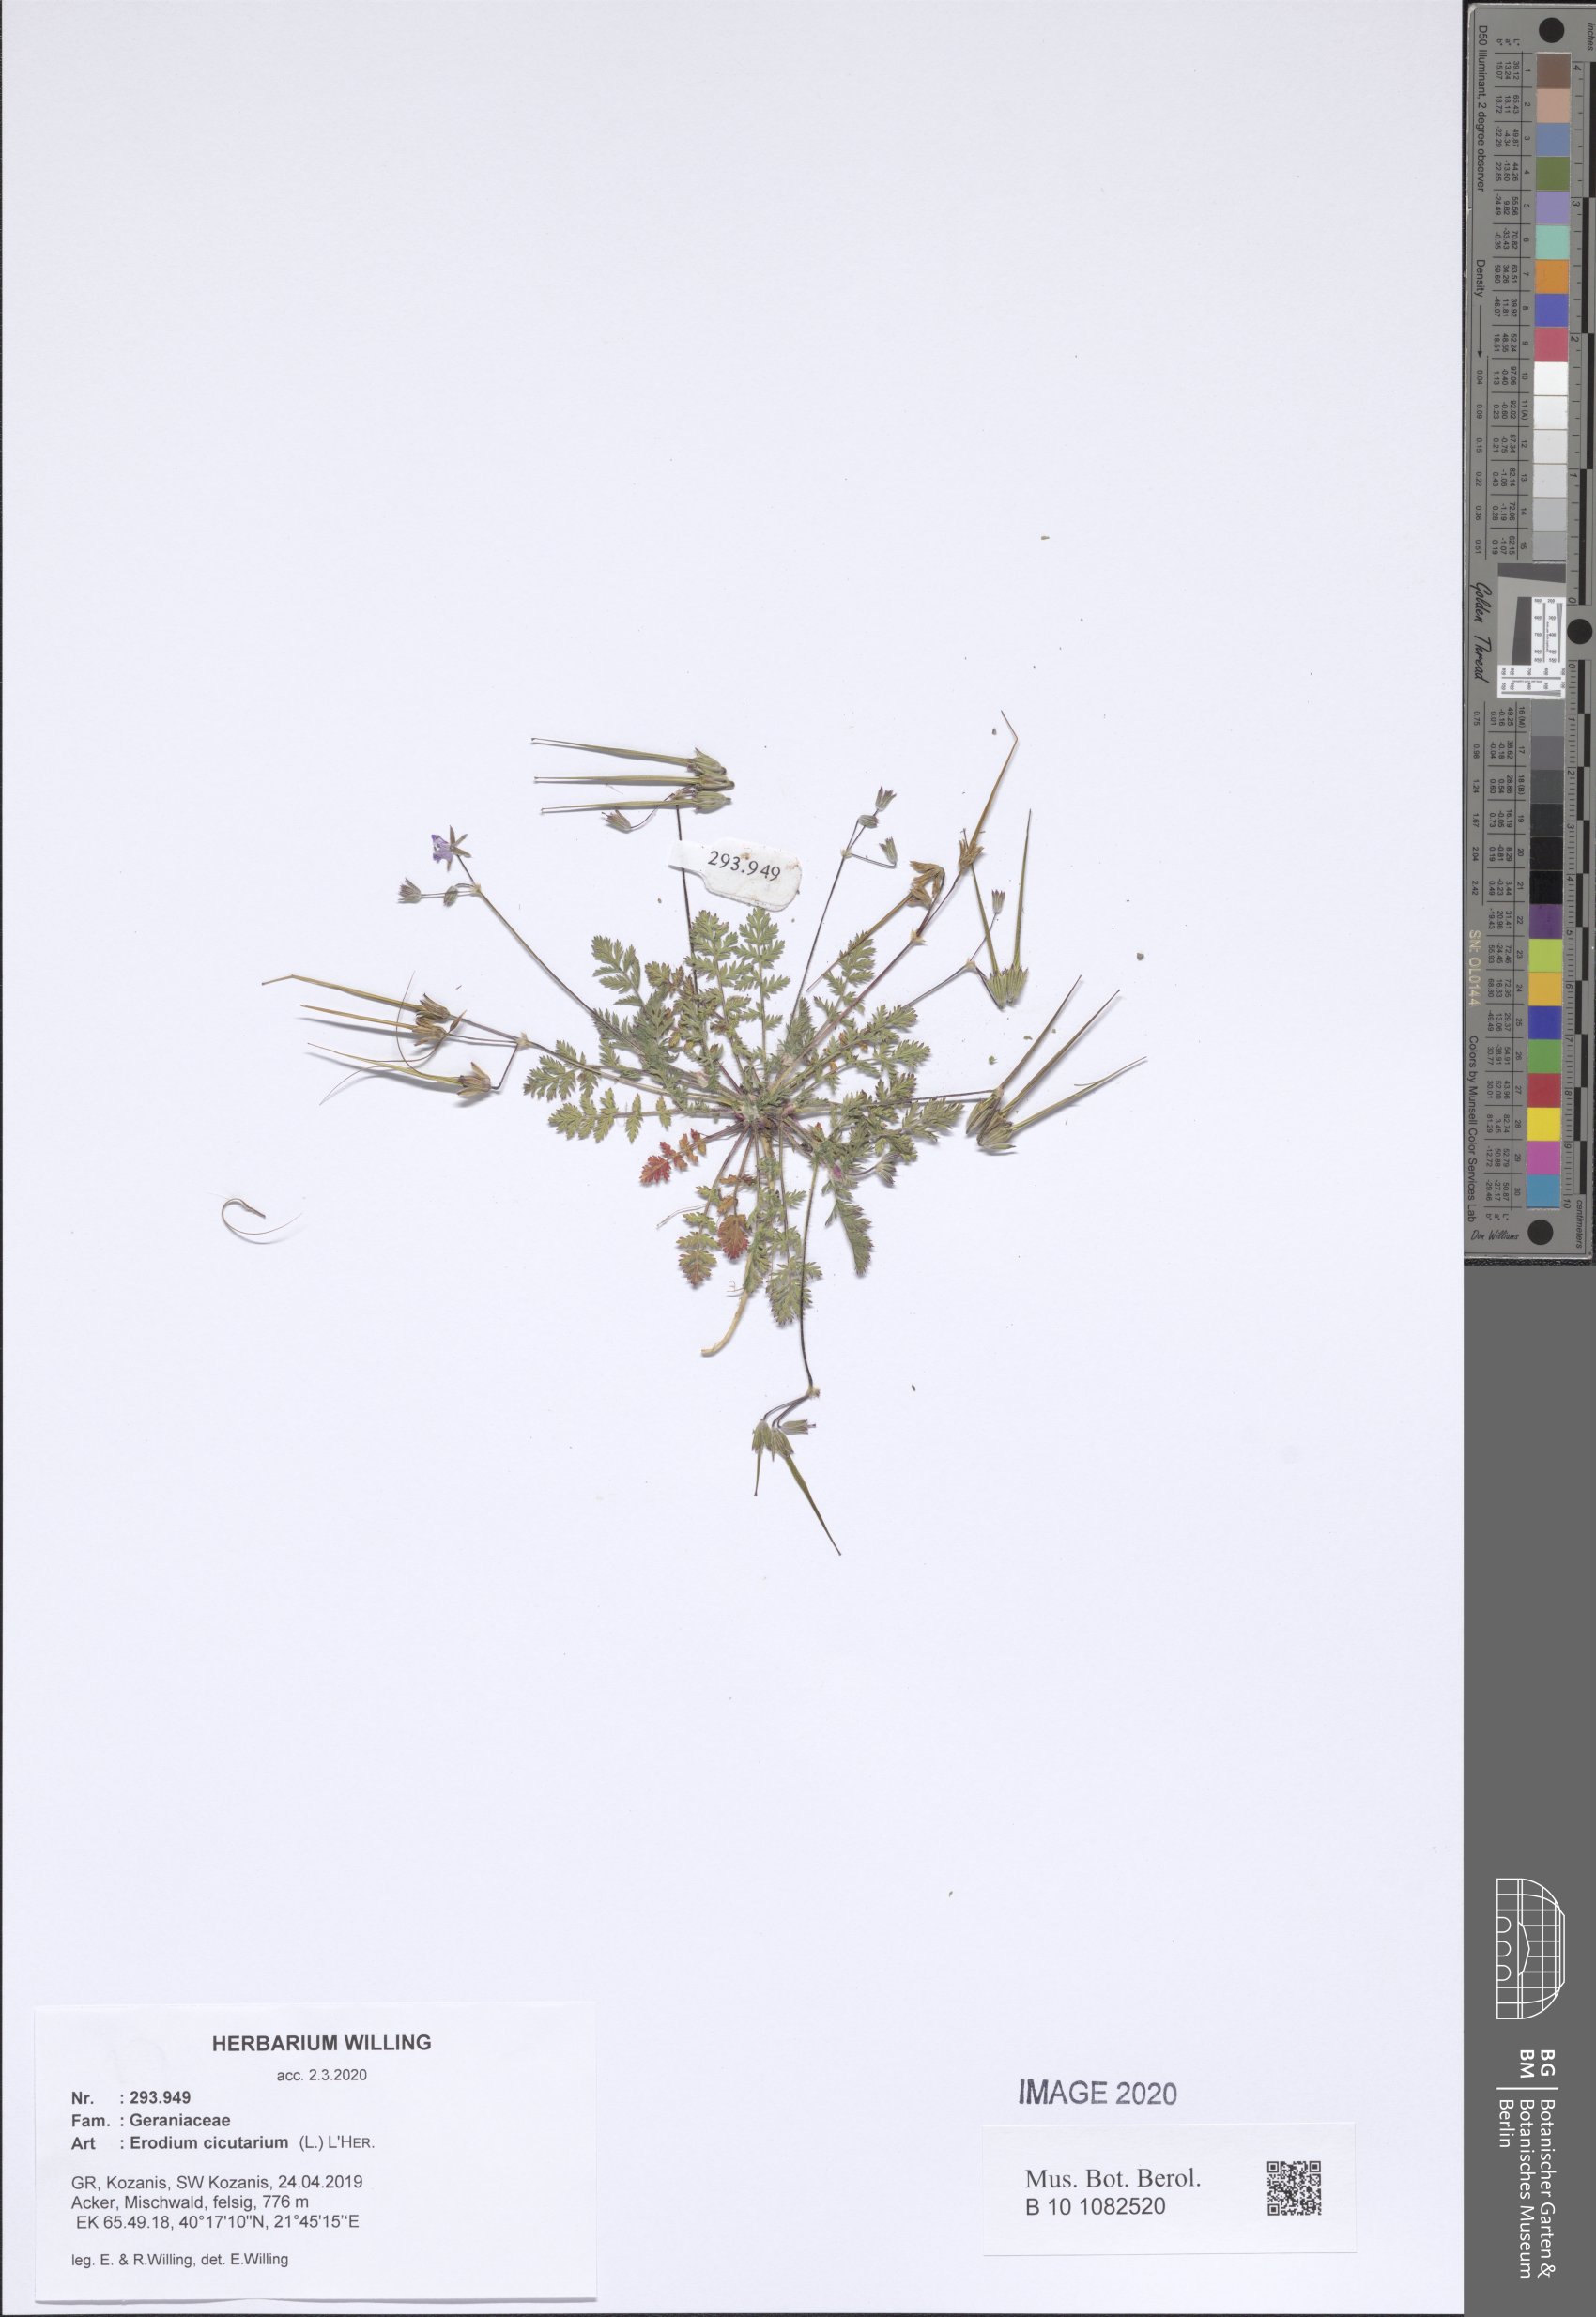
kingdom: Plantae
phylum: Tracheophyta
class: Magnoliopsida
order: Geraniales
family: Geraniaceae
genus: Erodium
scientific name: Erodium cicutarium
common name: Common stork's-bill
